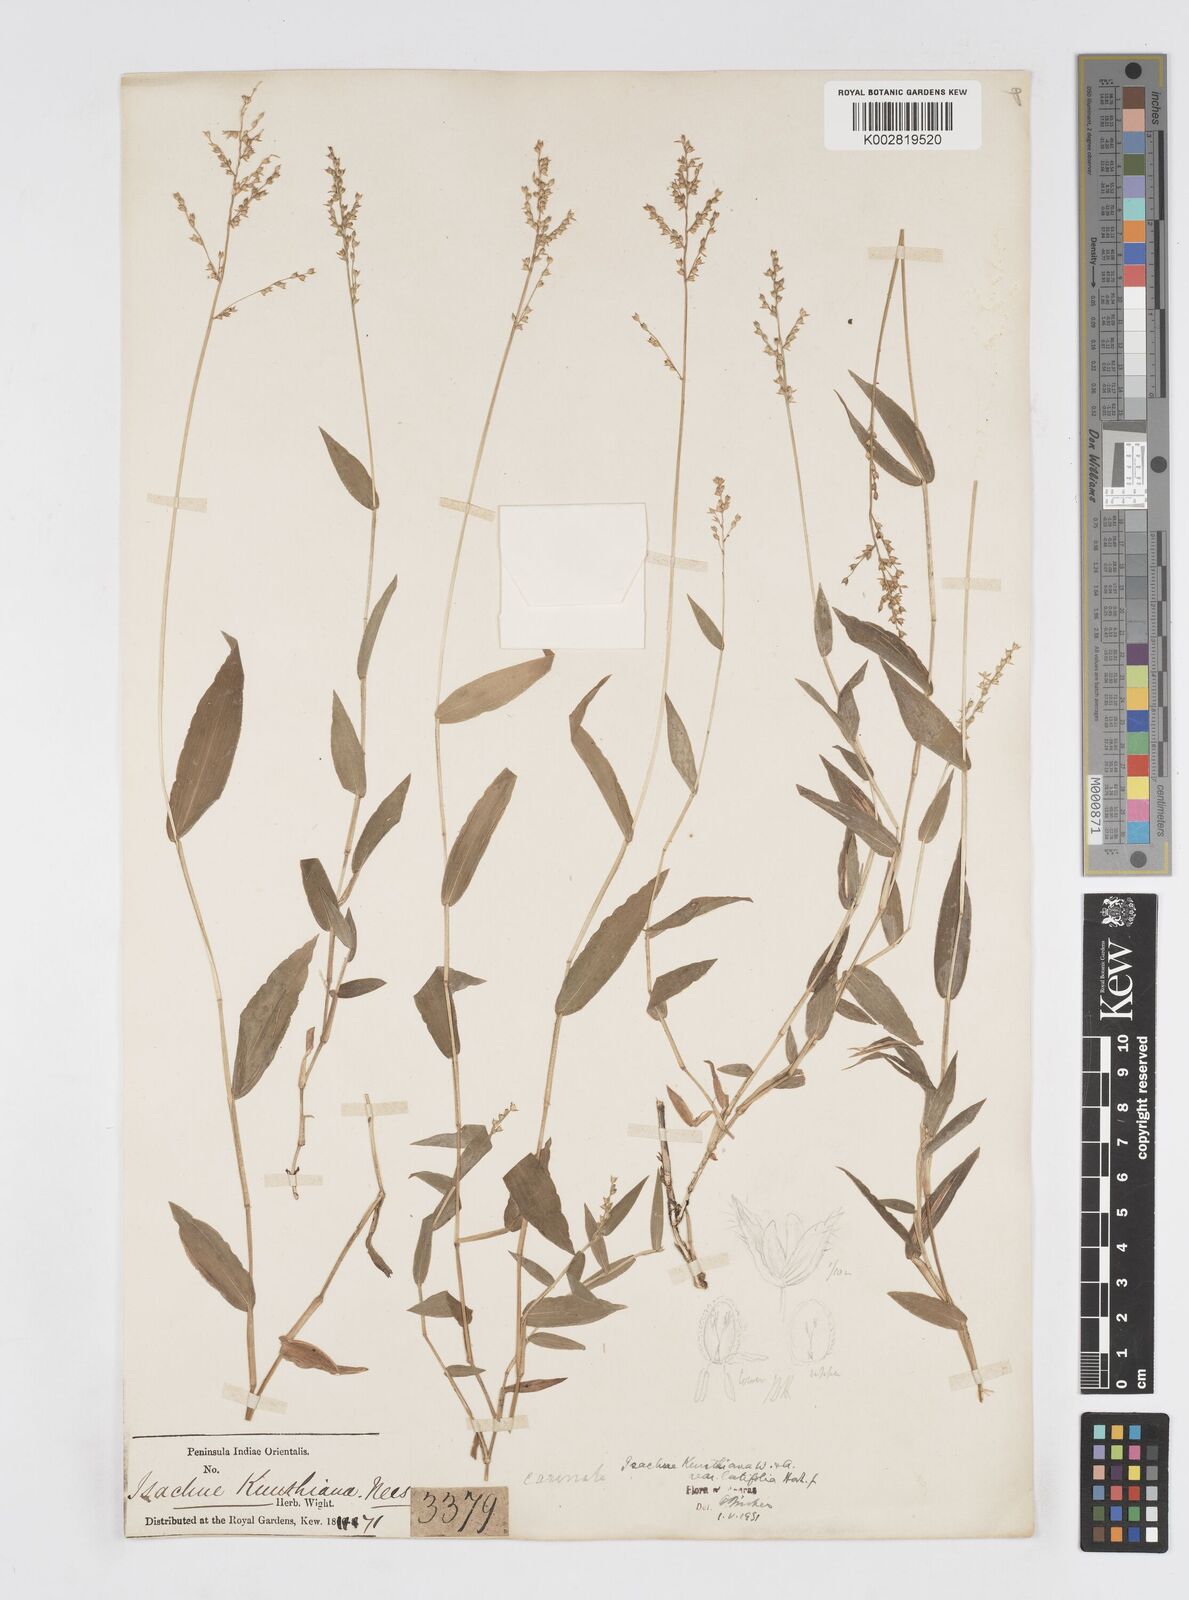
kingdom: Plantae
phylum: Tracheophyta
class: Liliopsida
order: Poales
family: Poaceae
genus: Isachne
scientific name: Isachne kunthiana
